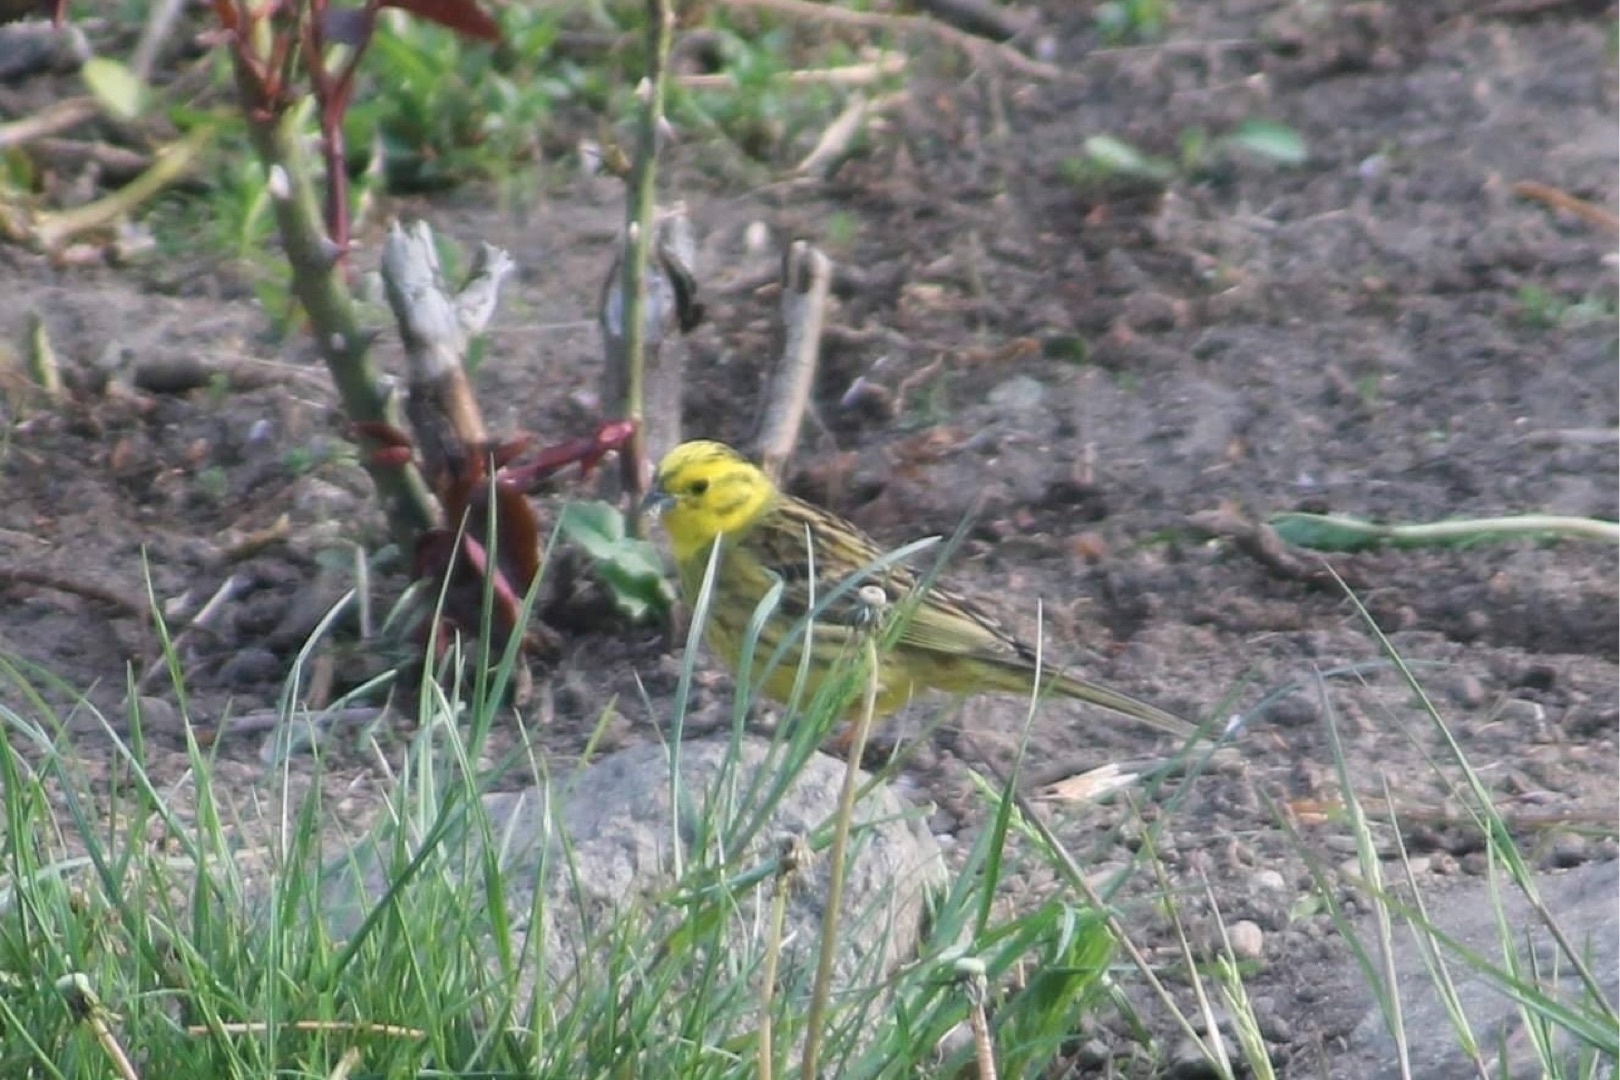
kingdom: Animalia
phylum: Chordata
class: Aves
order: Passeriformes
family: Emberizidae
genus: Emberiza
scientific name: Emberiza citrinella
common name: Gulspurv
